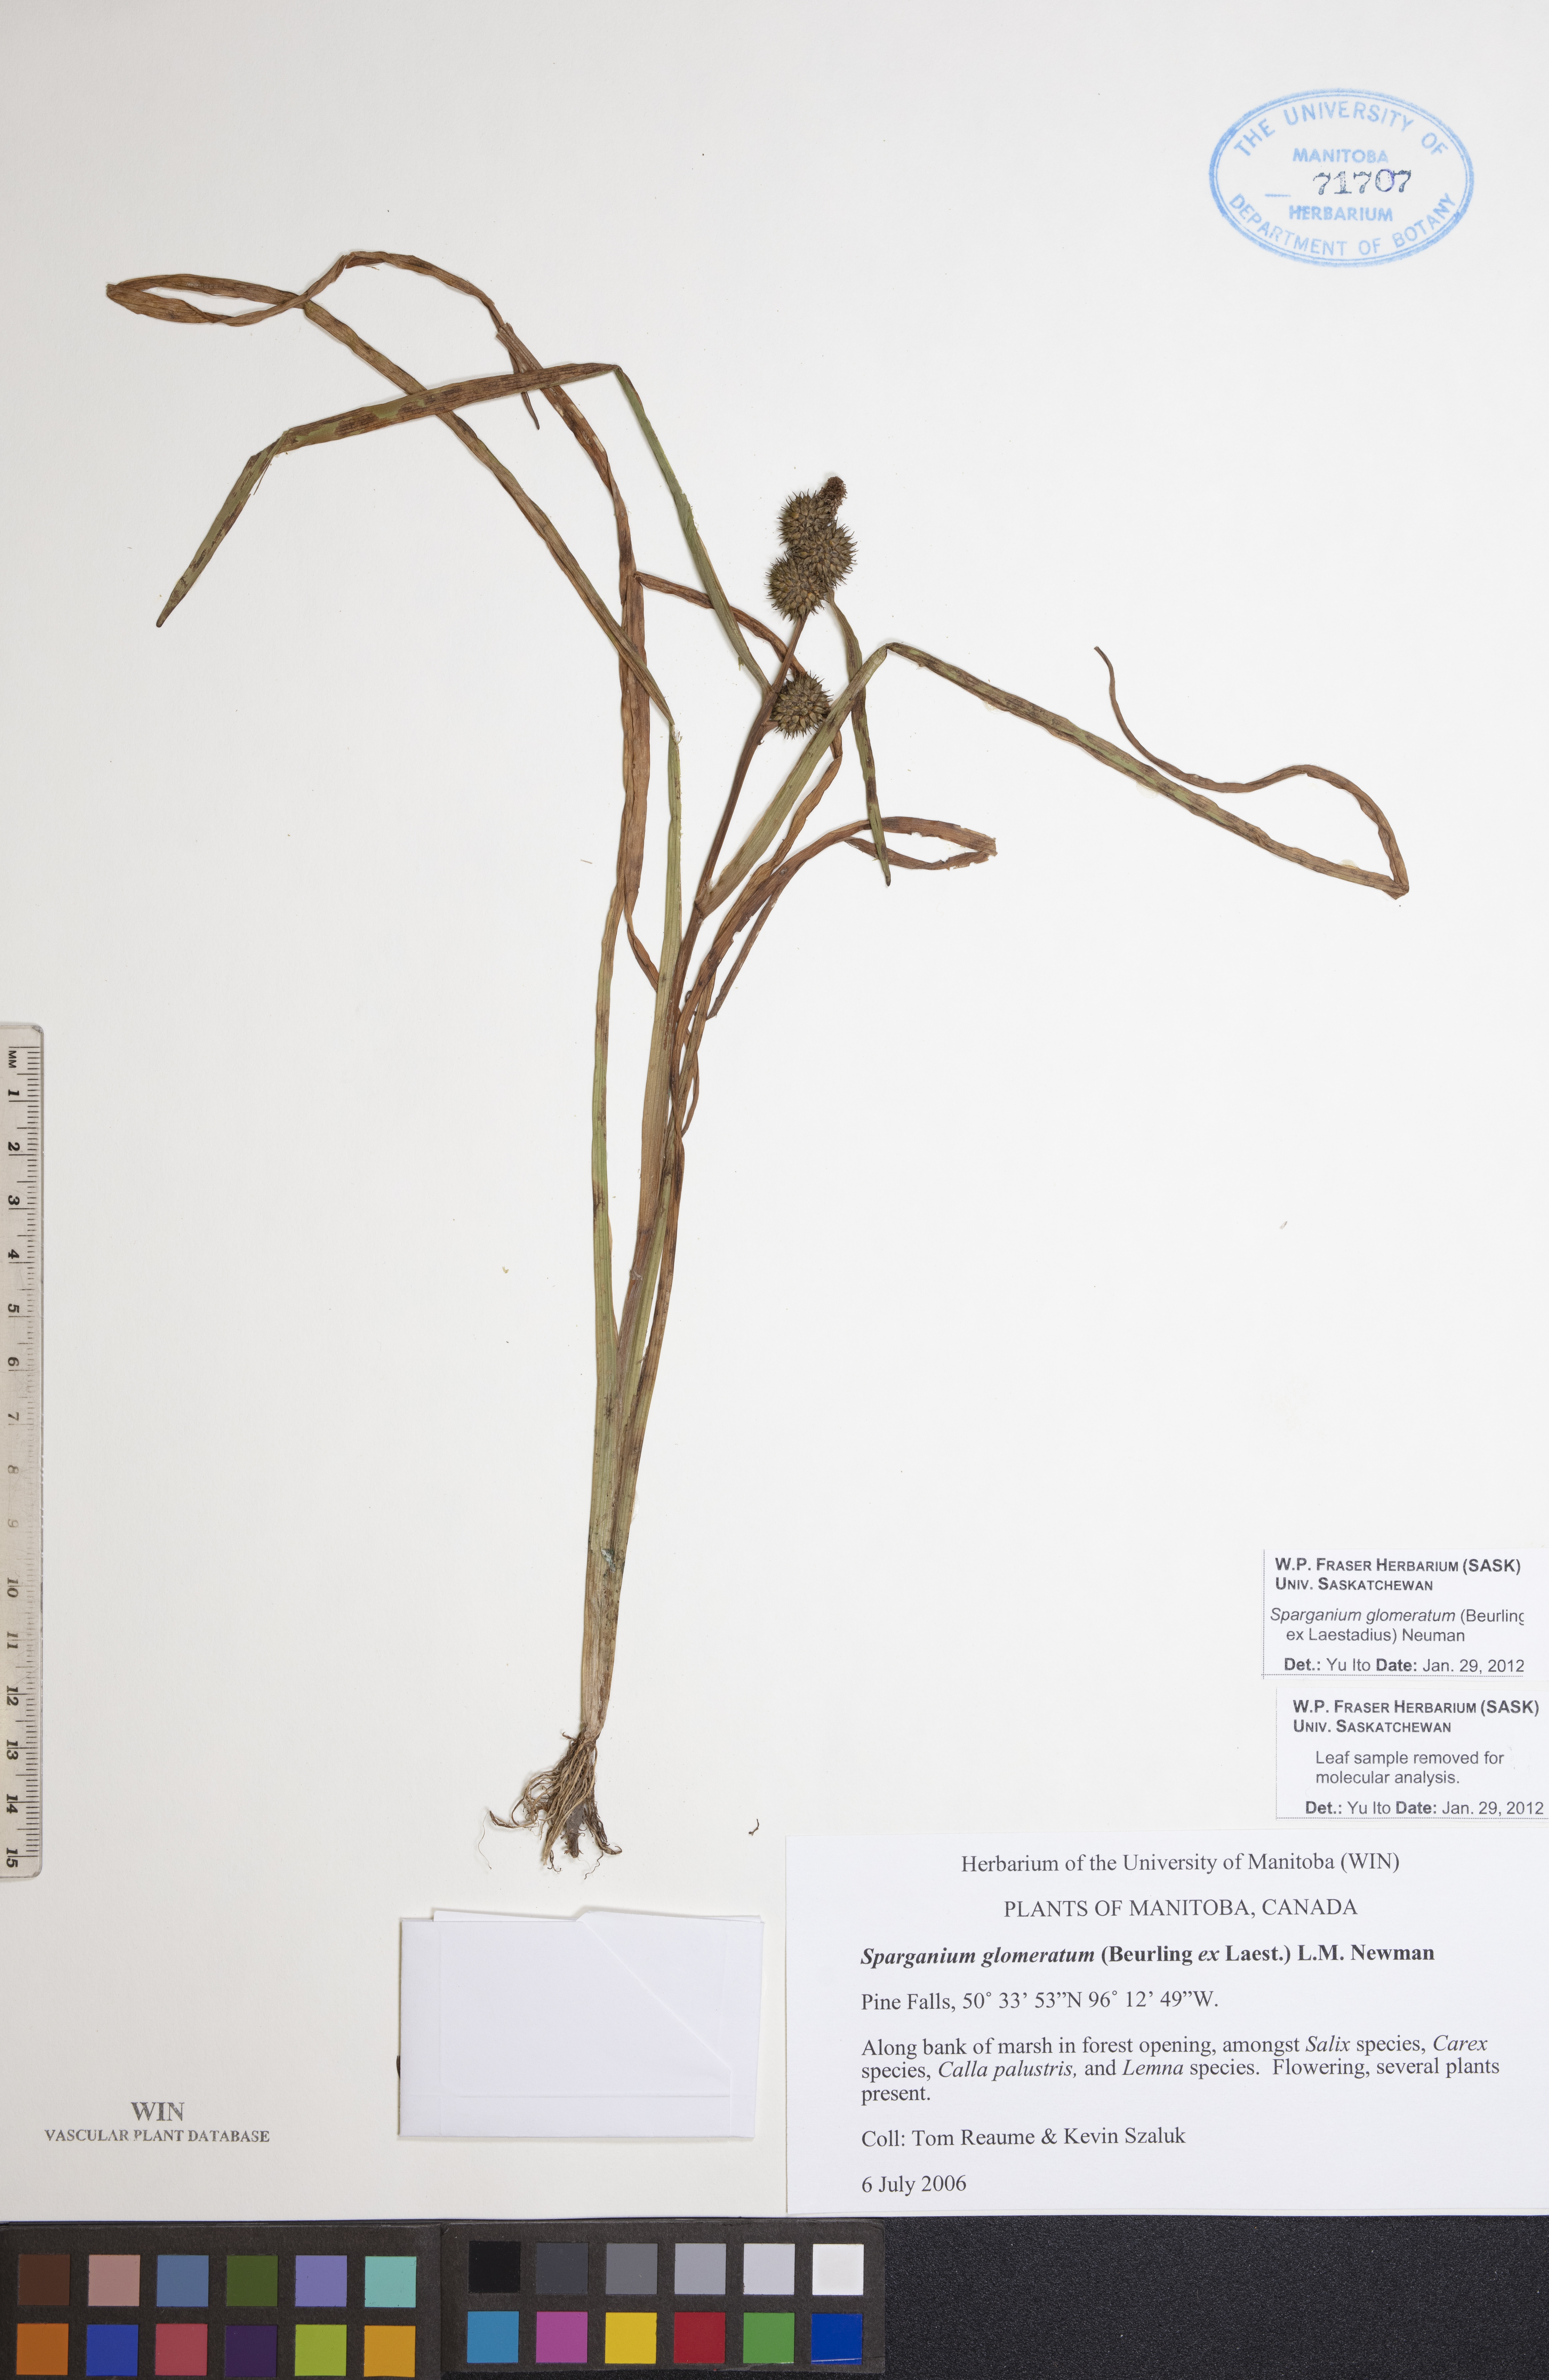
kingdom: Plantae
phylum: Tracheophyta
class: Liliopsida
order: Poales
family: Typhaceae
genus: Sparganium
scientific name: Sparganium glomeratum
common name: Clustered burreed
